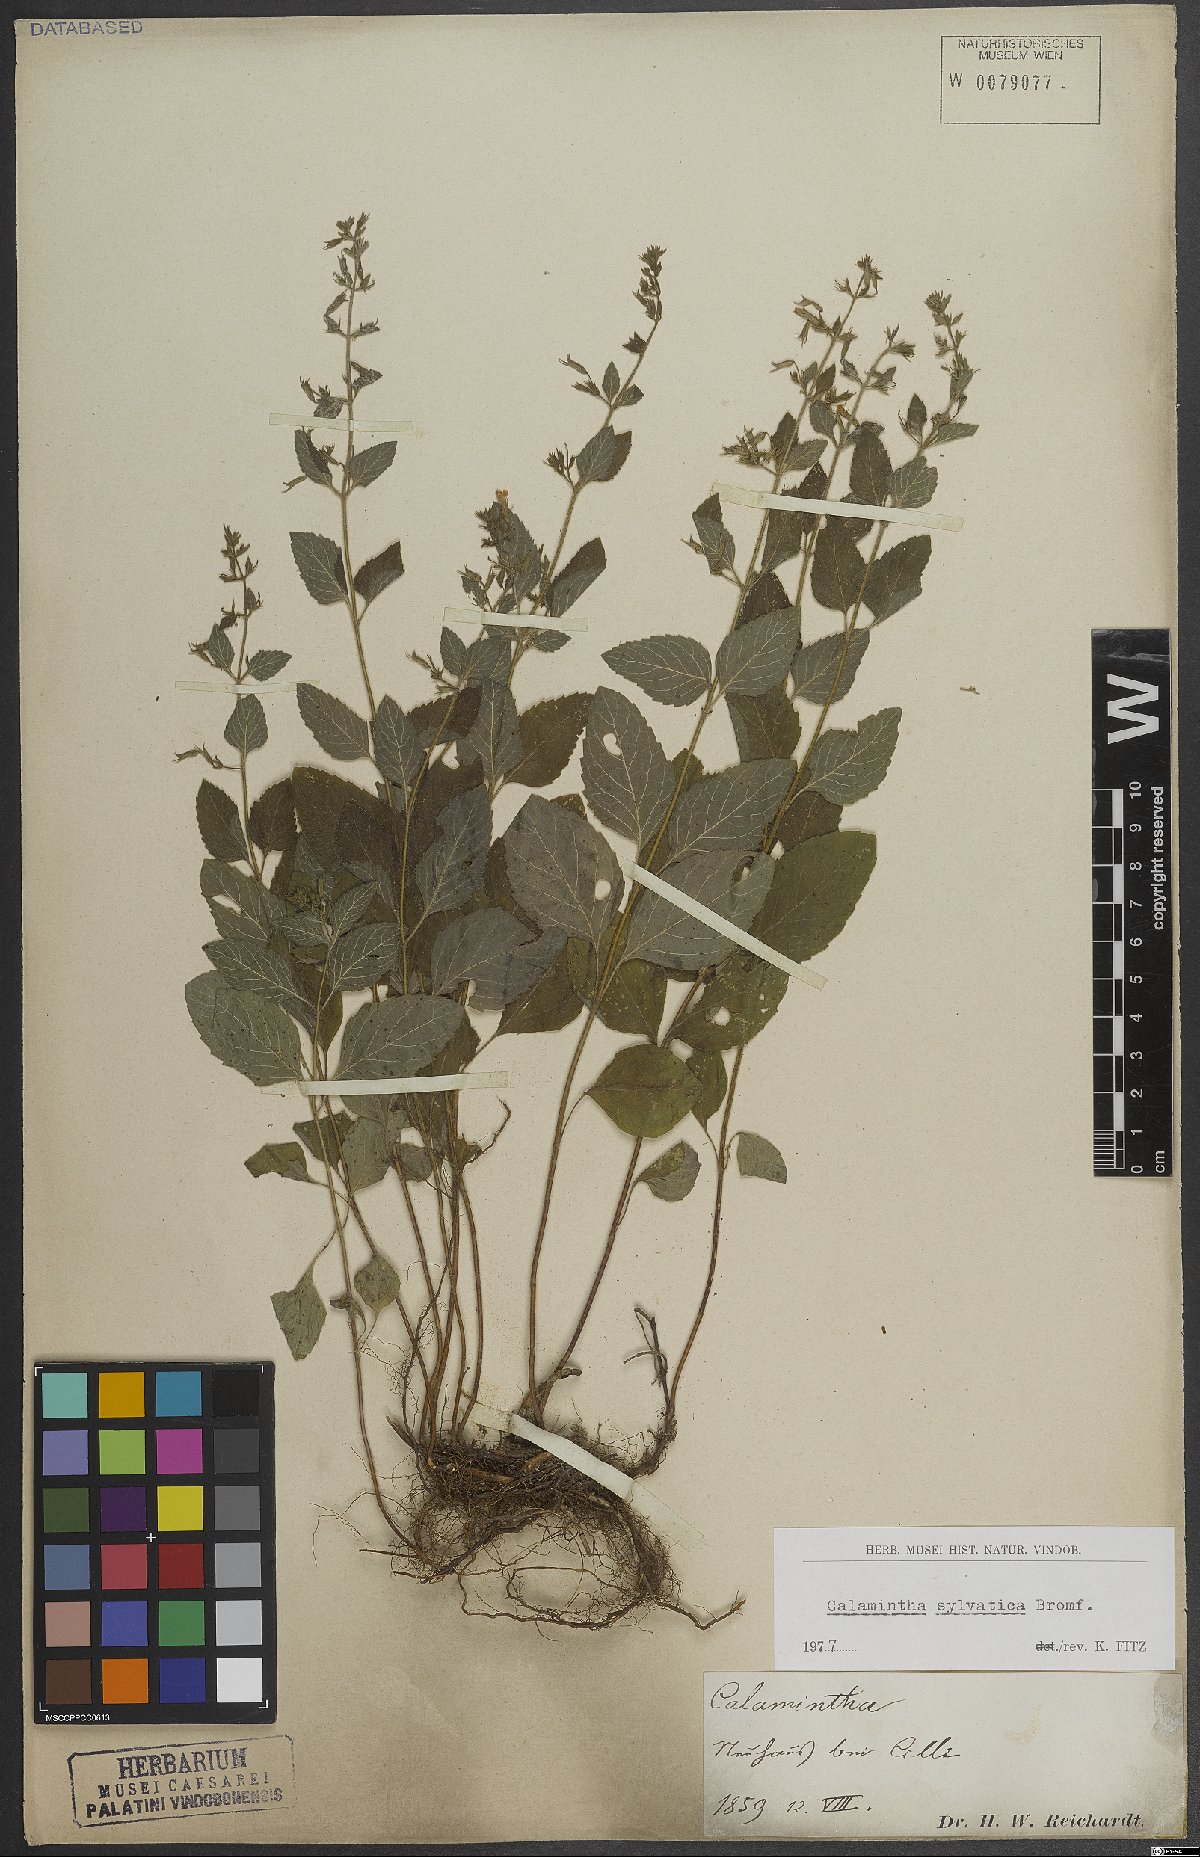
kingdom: Plantae
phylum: Tracheophyta
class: Magnoliopsida
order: Lamiales
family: Lamiaceae
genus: Clinopodium
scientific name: Clinopodium menthifolium
